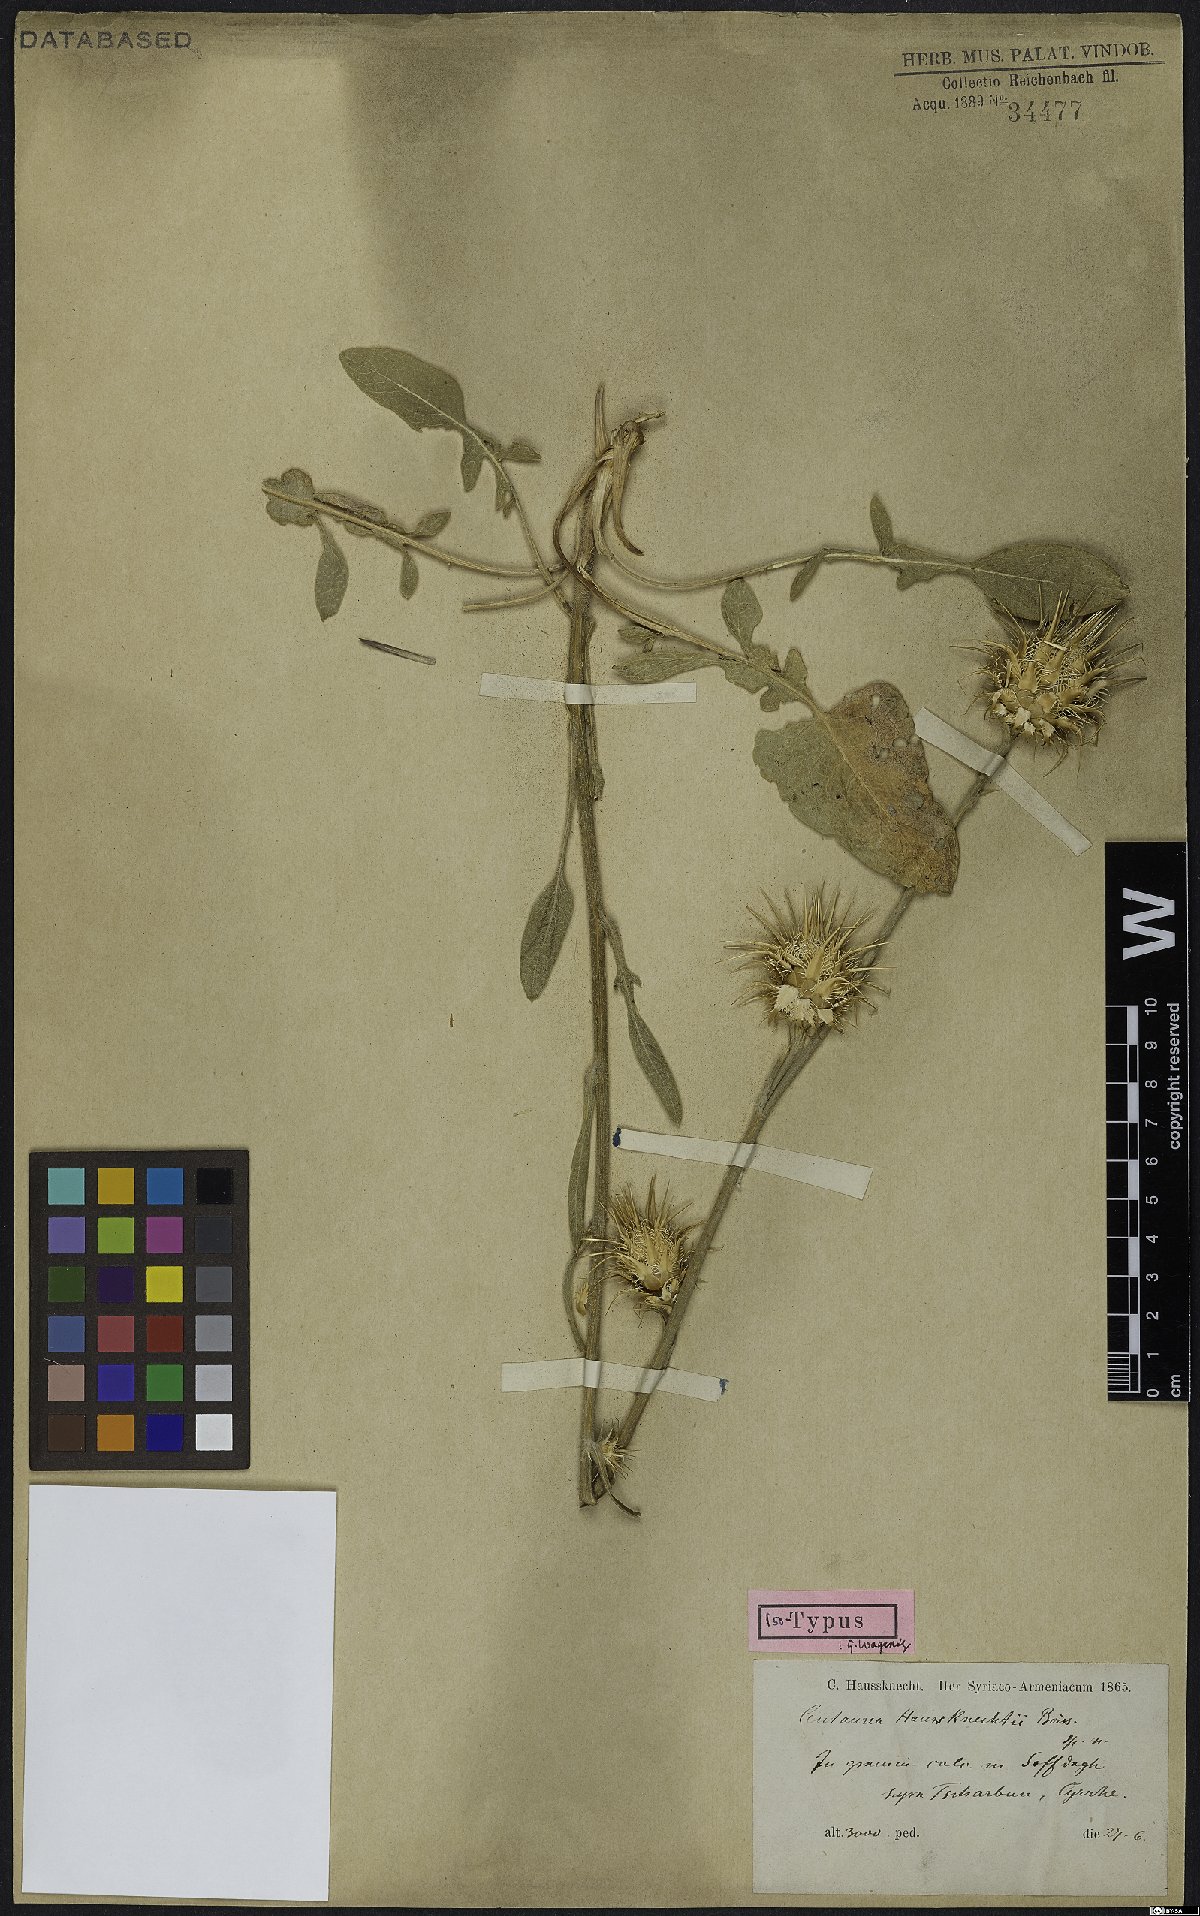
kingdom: Plantae
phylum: Tracheophyta
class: Magnoliopsida
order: Asterales
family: Asteraceae
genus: Centaurea
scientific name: Centaurea haussknechtii
